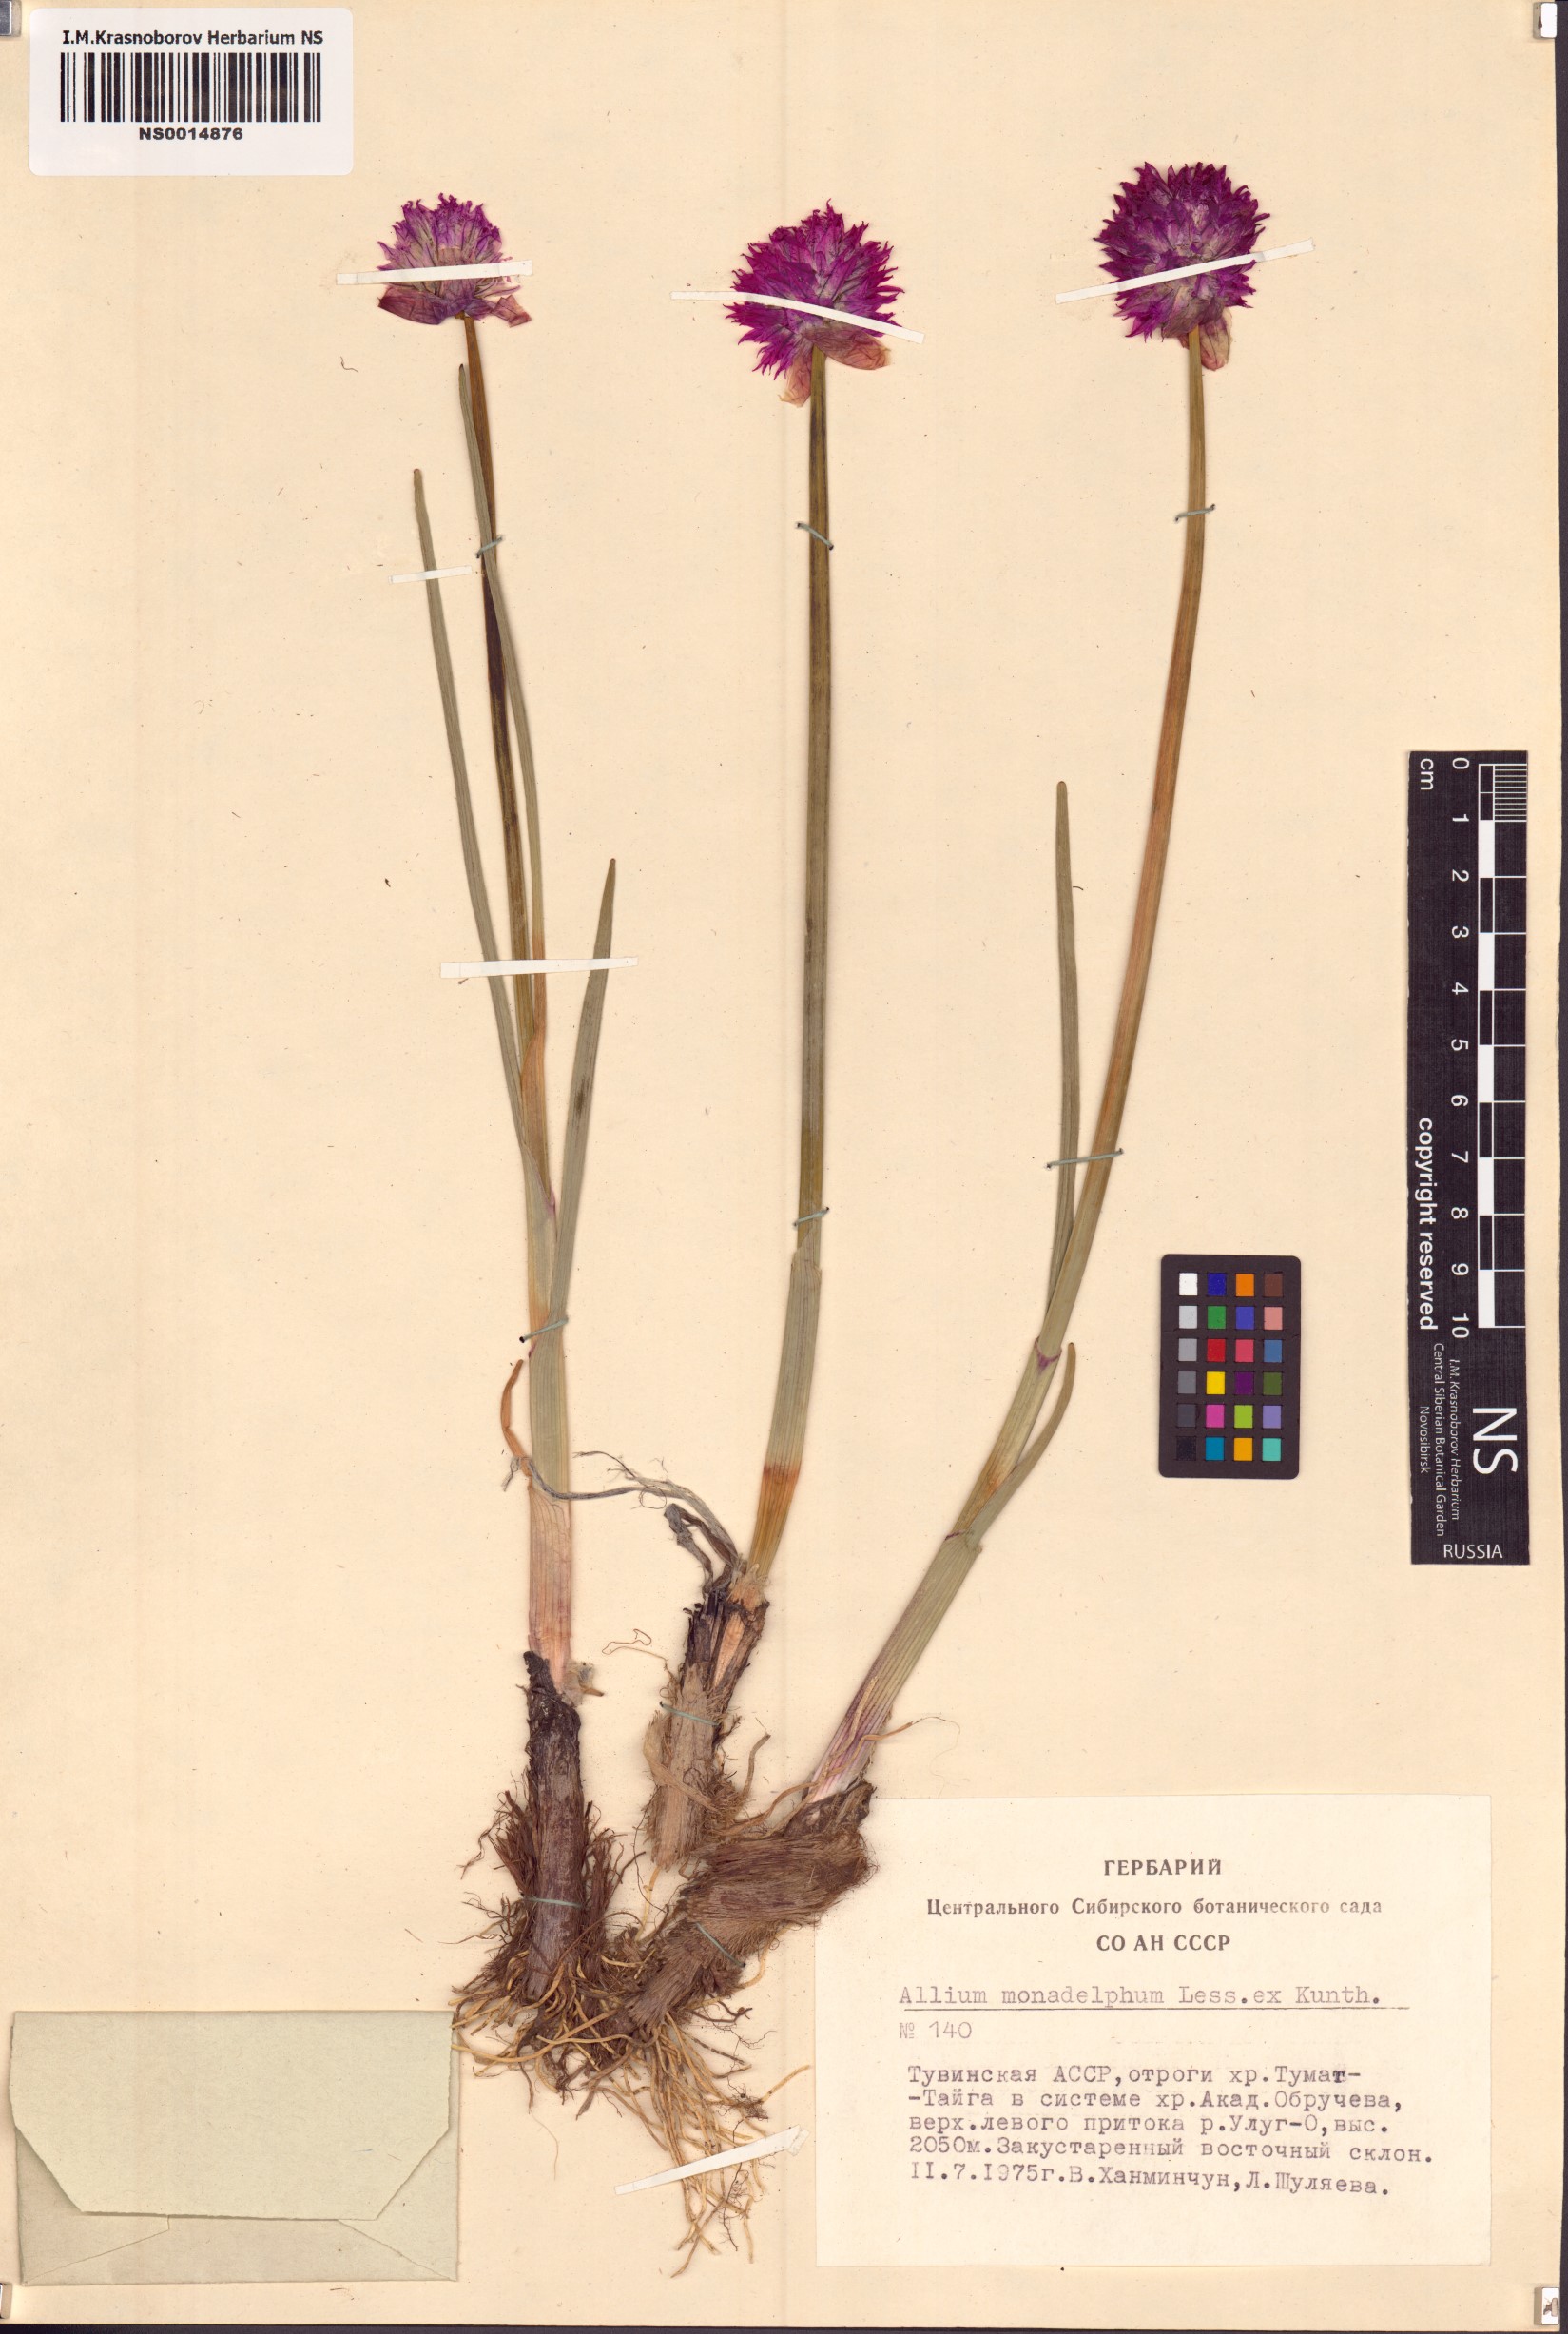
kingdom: Plantae
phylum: Tracheophyta
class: Liliopsida
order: Asparagales
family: Amaryllidaceae
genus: Allium
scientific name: Allium atrosanguineum
